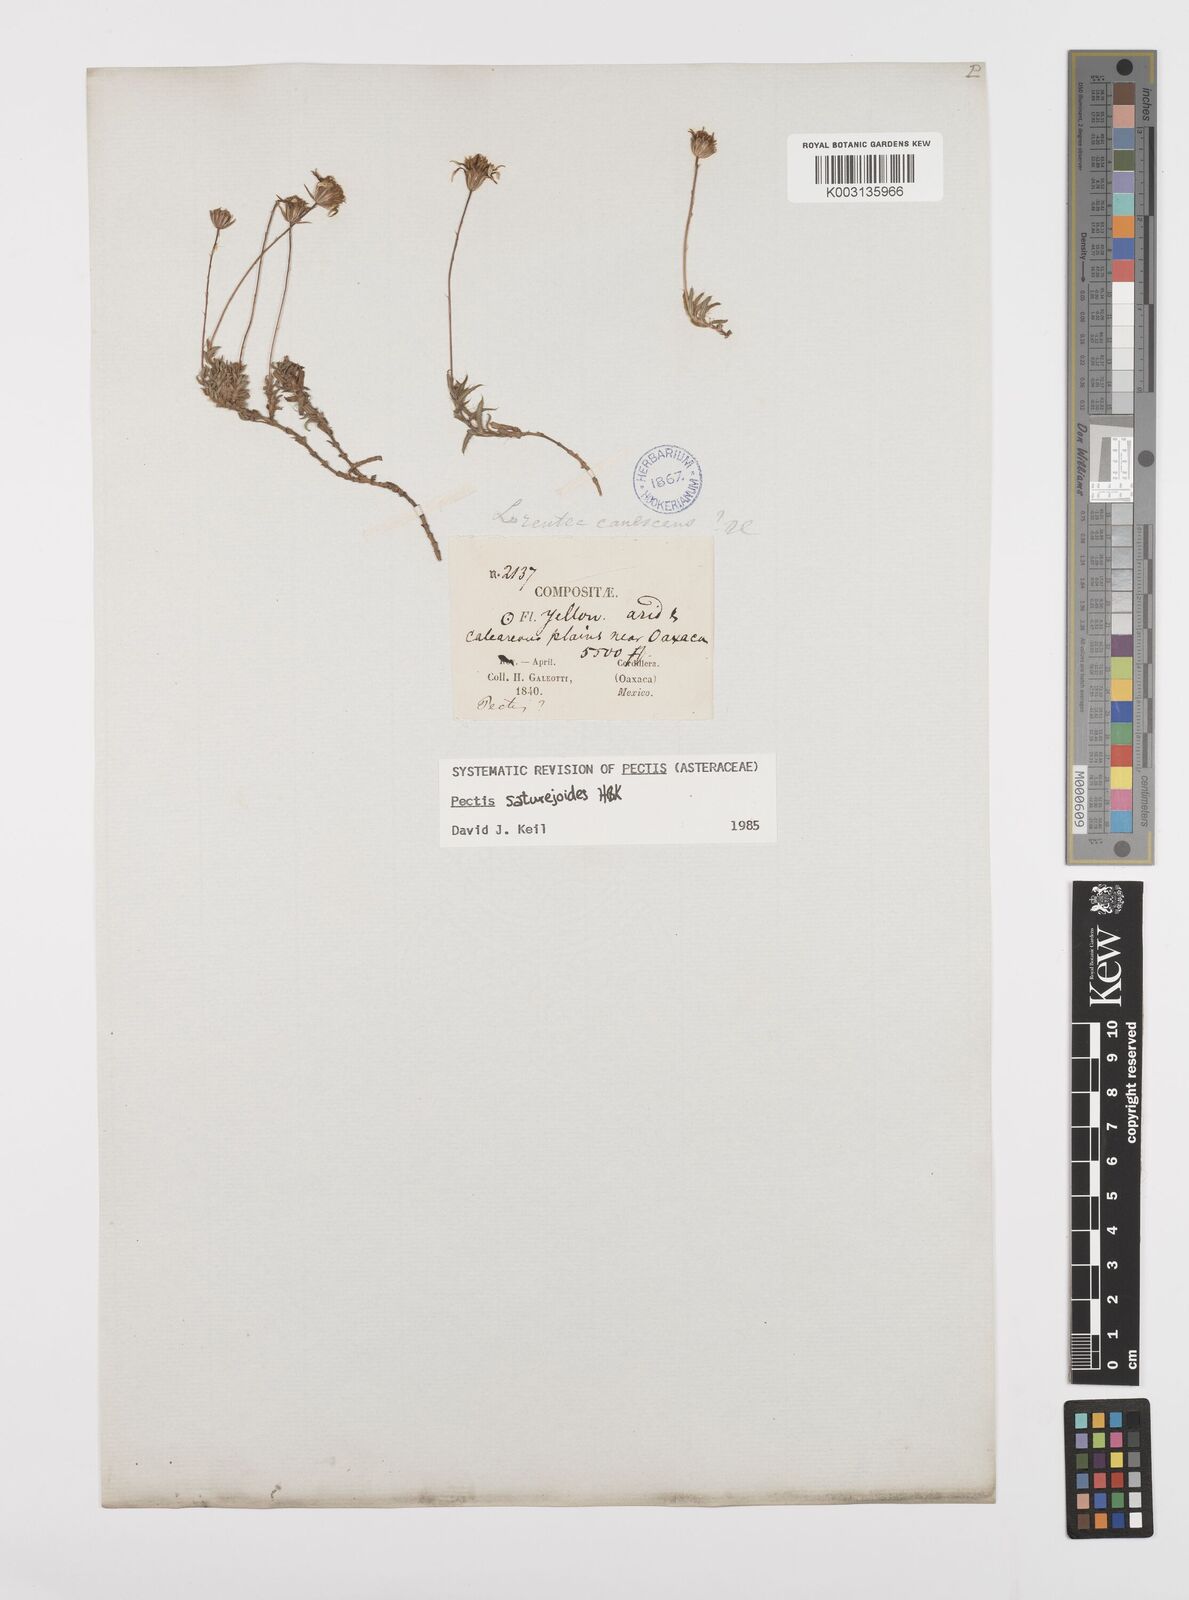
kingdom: Plantae
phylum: Tracheophyta
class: Magnoliopsida
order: Asterales
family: Asteraceae
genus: Pectis
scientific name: Pectis saturejoides
